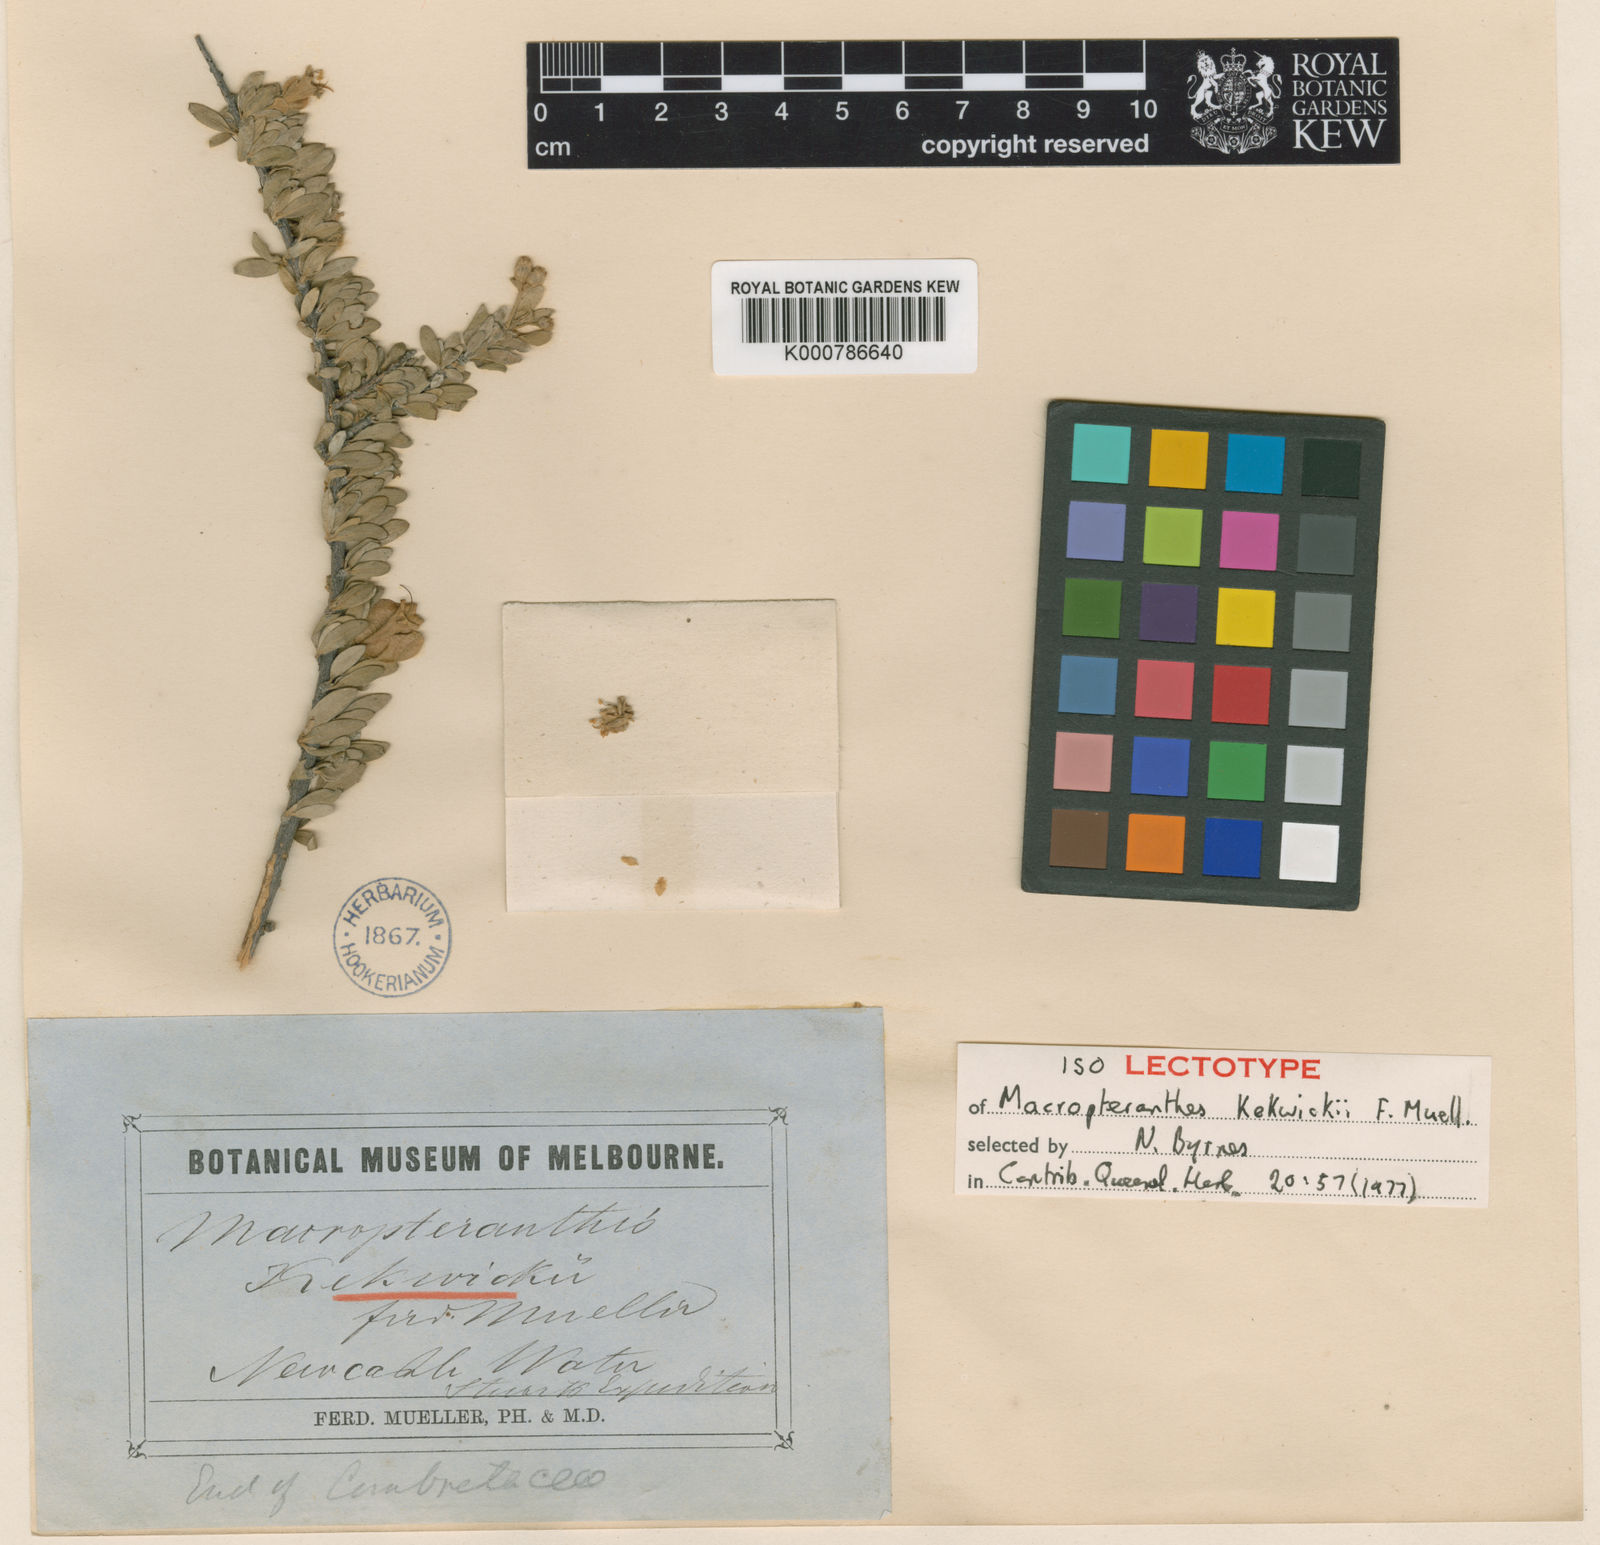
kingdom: Plantae
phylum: Tracheophyta
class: Magnoliopsida
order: Myrtales
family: Combretaceae
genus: Macropteranthes
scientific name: Macropteranthes
